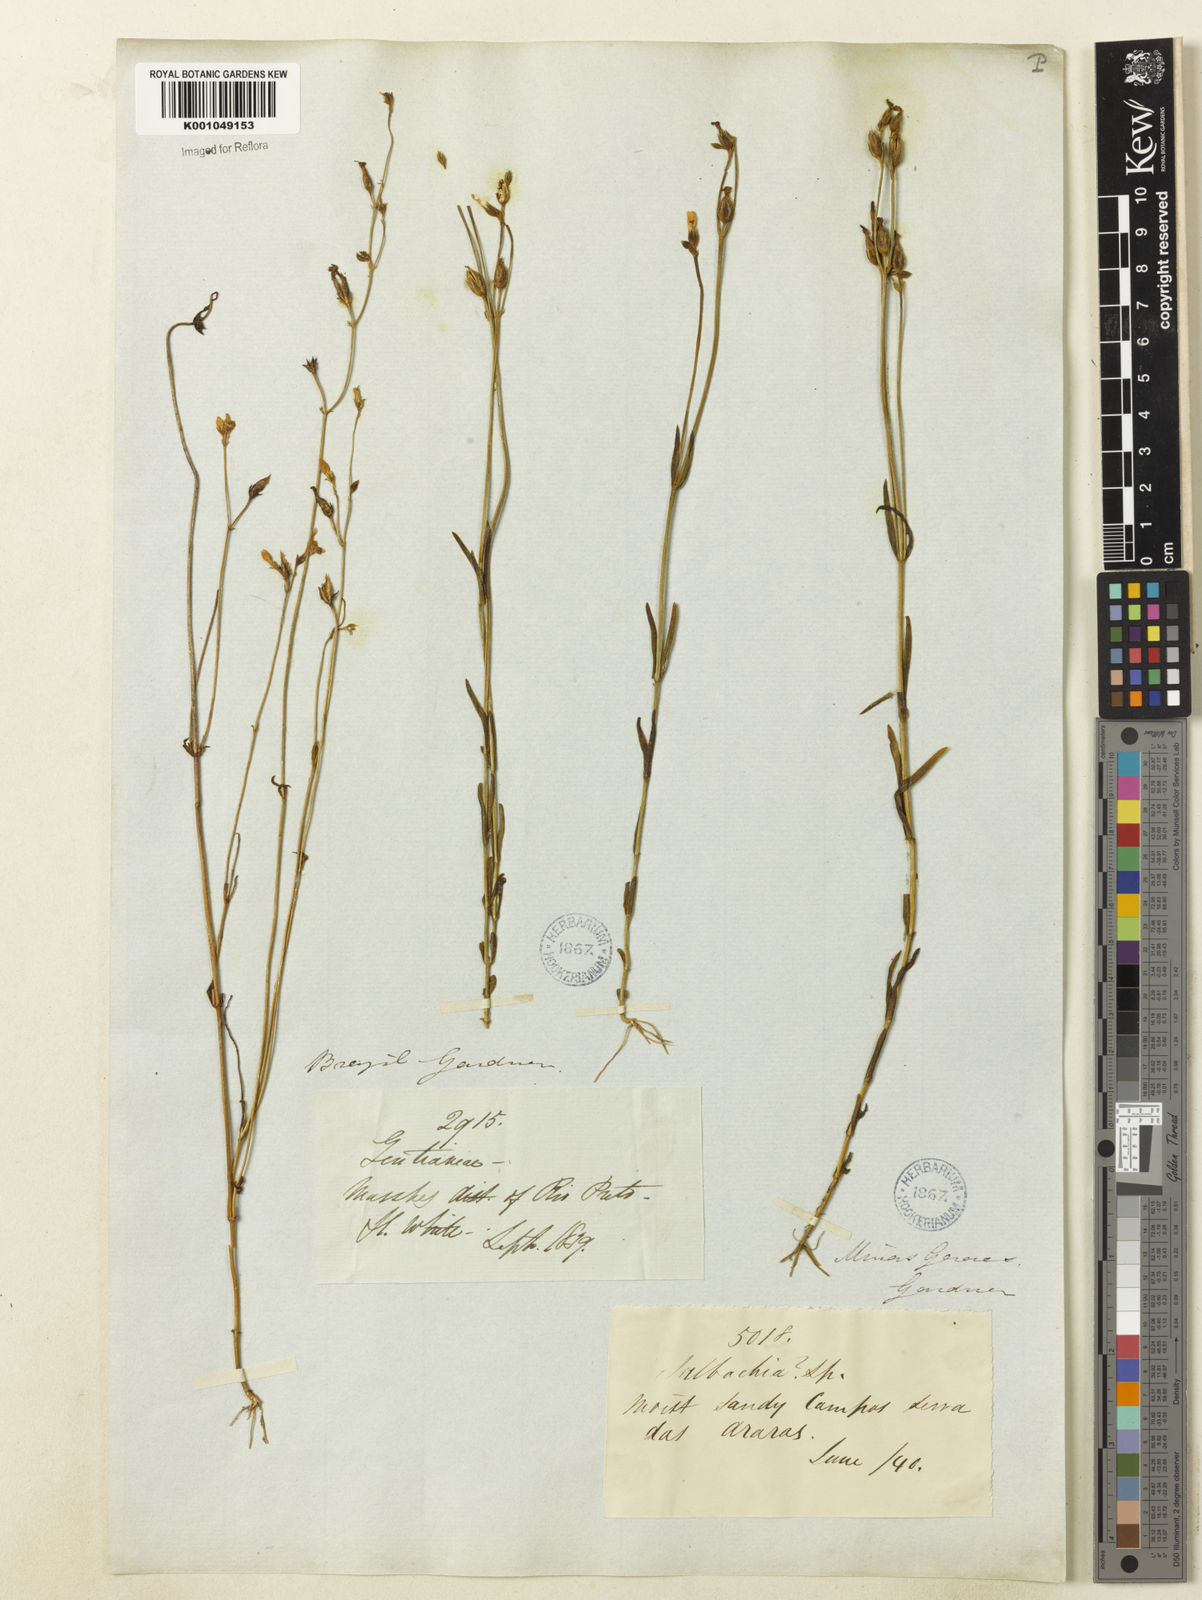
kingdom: Plantae
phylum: Tracheophyta
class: Magnoliopsida
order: Gentianales
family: Gentianaceae
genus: Tetrapollinia
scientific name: Tetrapollinia caerulescens
